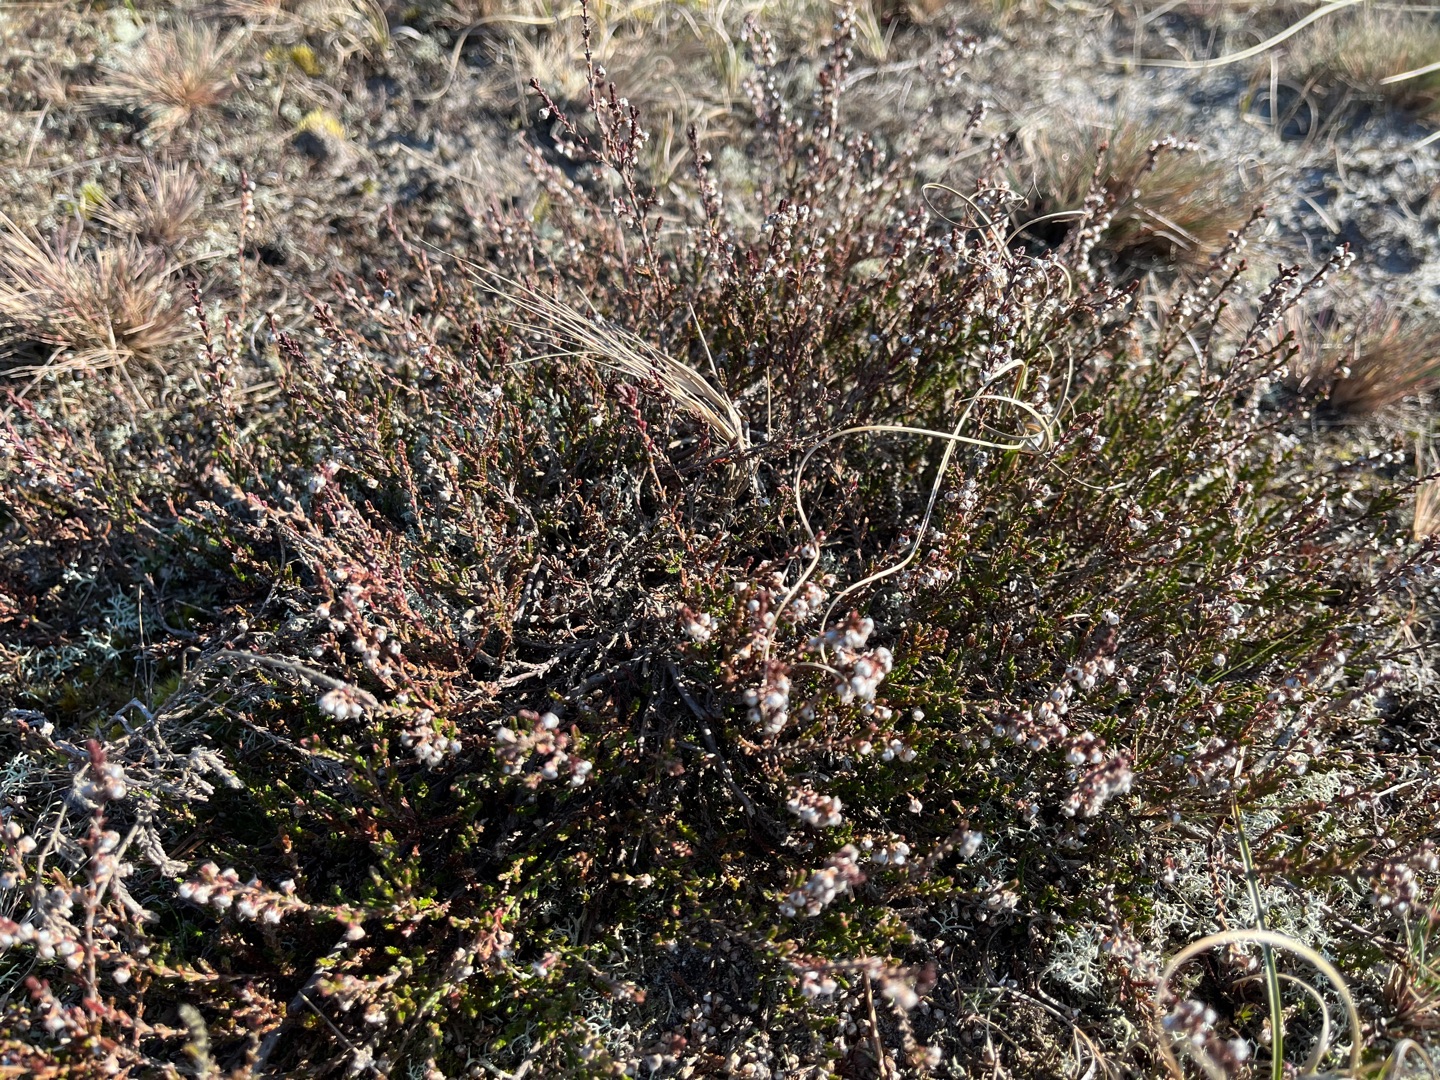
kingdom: Plantae
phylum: Tracheophyta
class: Magnoliopsida
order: Ericales
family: Ericaceae
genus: Calluna
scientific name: Calluna vulgaris
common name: Hedelyng
